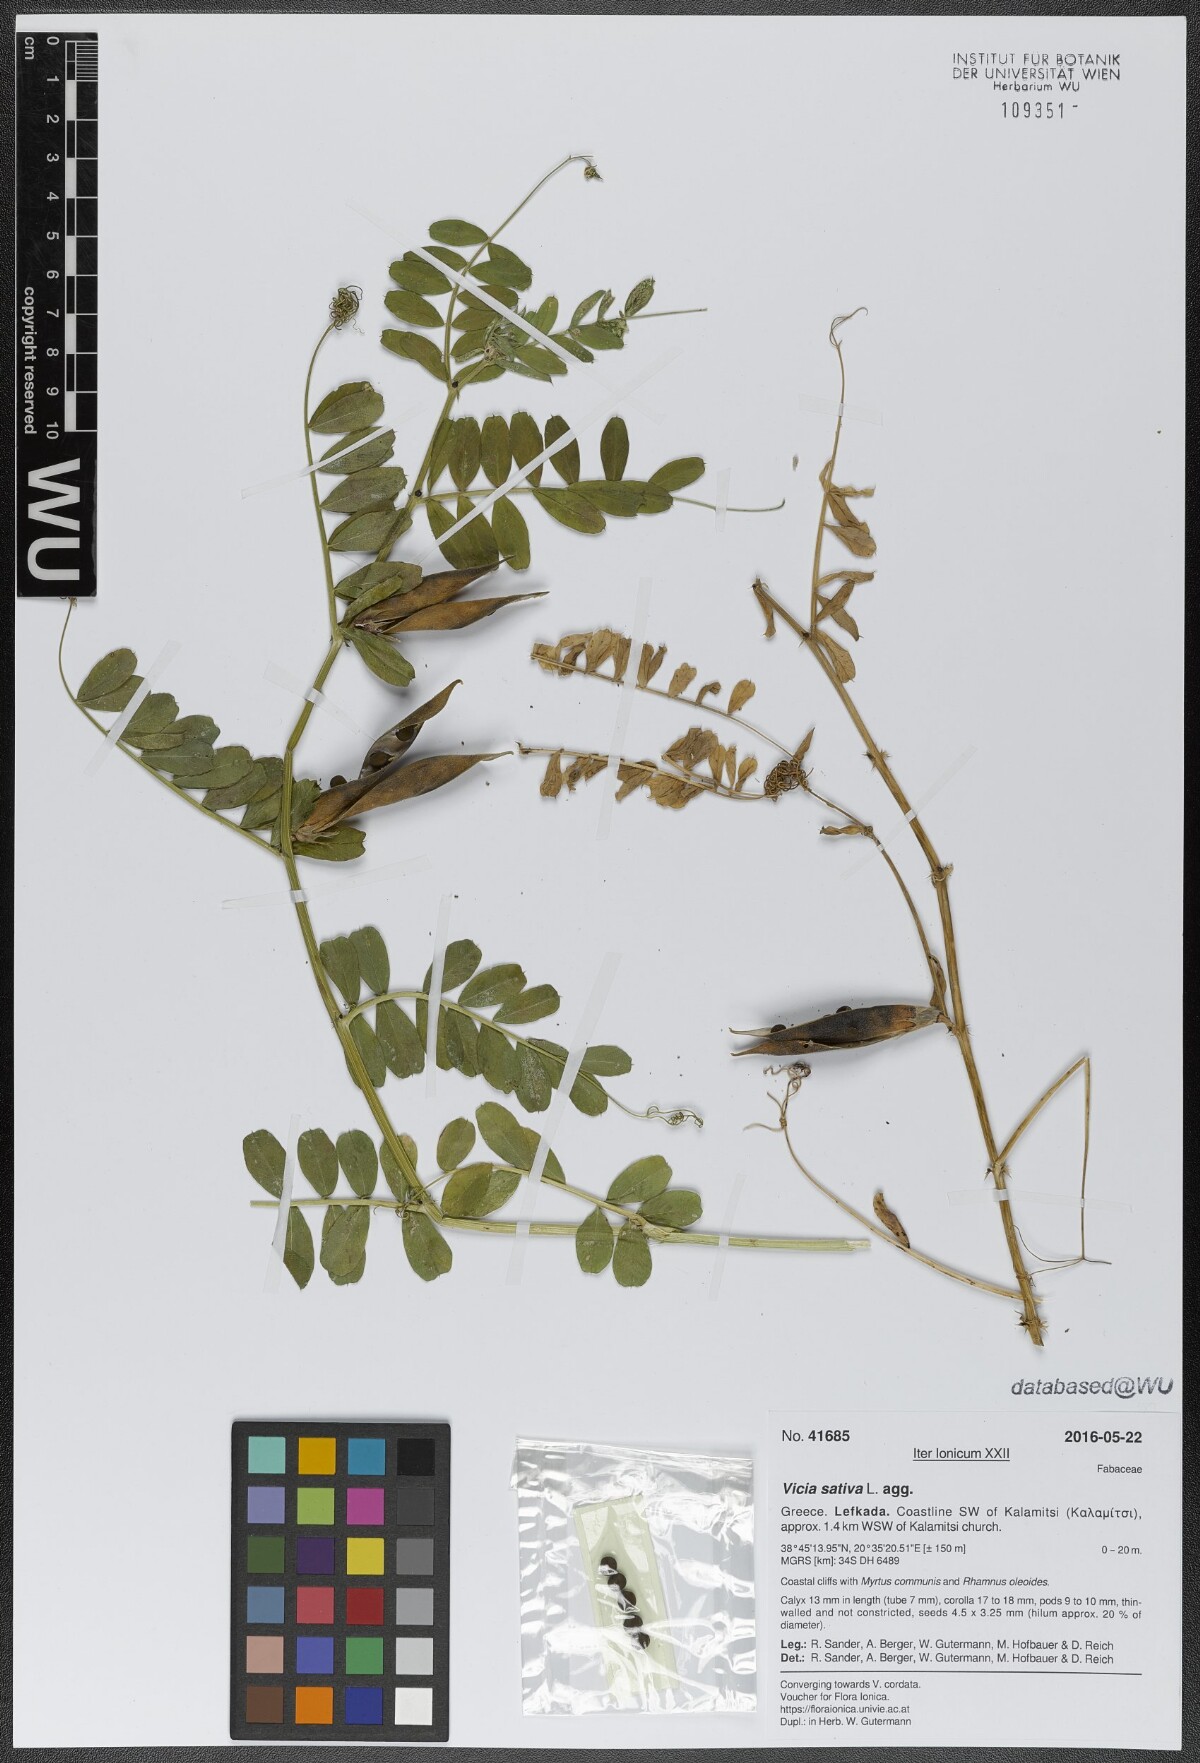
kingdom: Plantae
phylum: Tracheophyta
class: Magnoliopsida
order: Fabales
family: Fabaceae
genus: Vicia
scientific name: Vicia sativa
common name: Garden vetch
